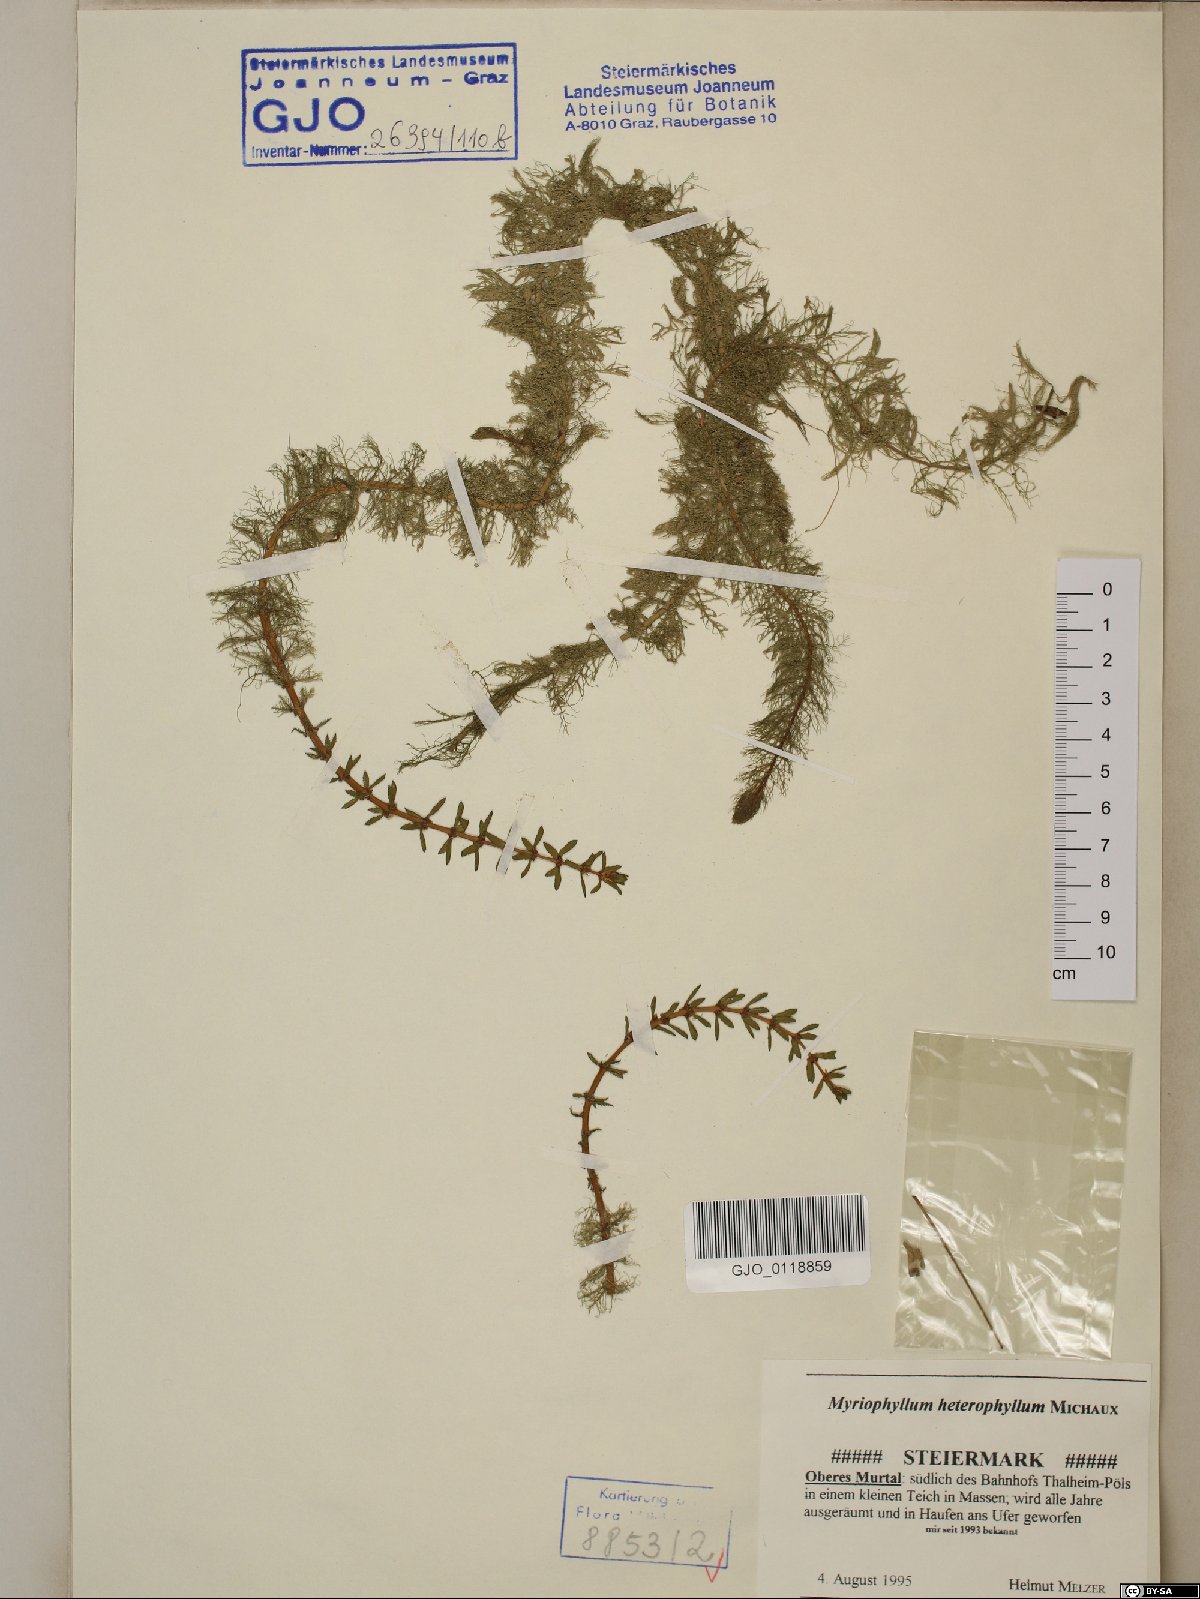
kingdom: Plantae
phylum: Tracheophyta
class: Magnoliopsida
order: Saxifragales
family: Haloragaceae
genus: Myriophyllum
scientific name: Myriophyllum heterophyllum
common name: Variable watermilfoil
